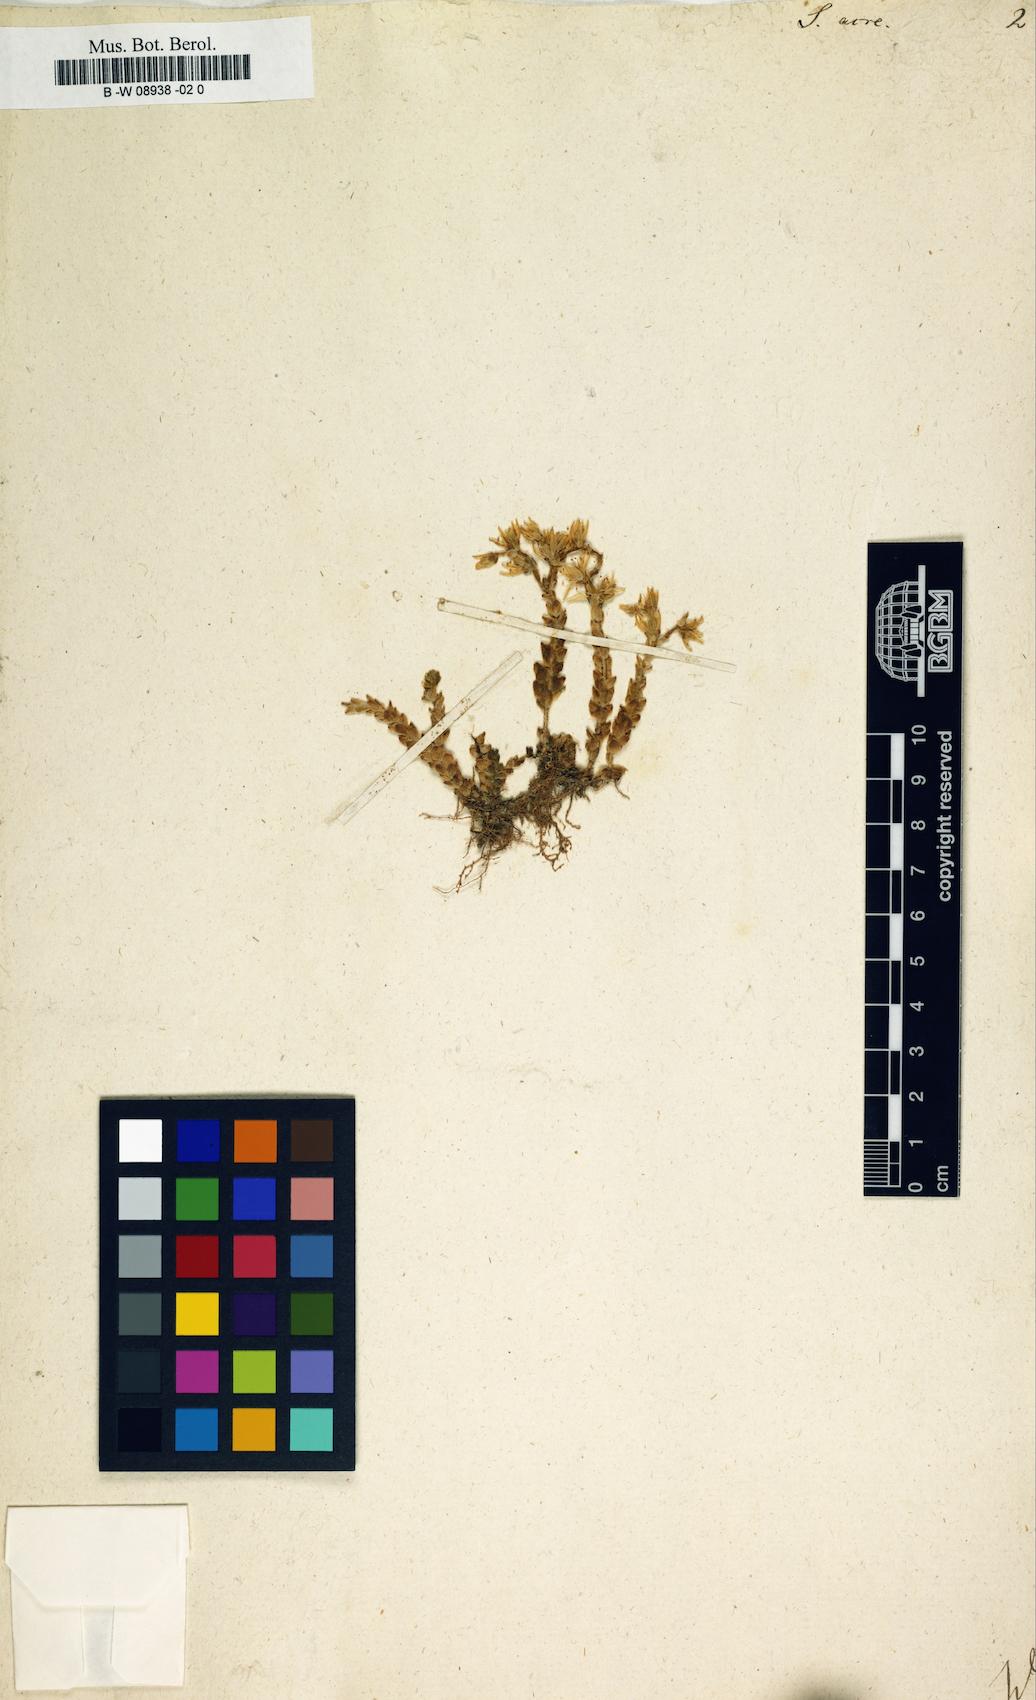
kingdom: Plantae
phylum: Tracheophyta
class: Magnoliopsida
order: Saxifragales
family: Crassulaceae
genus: Sedum
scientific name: Sedum acre
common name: Biting stonecrop
